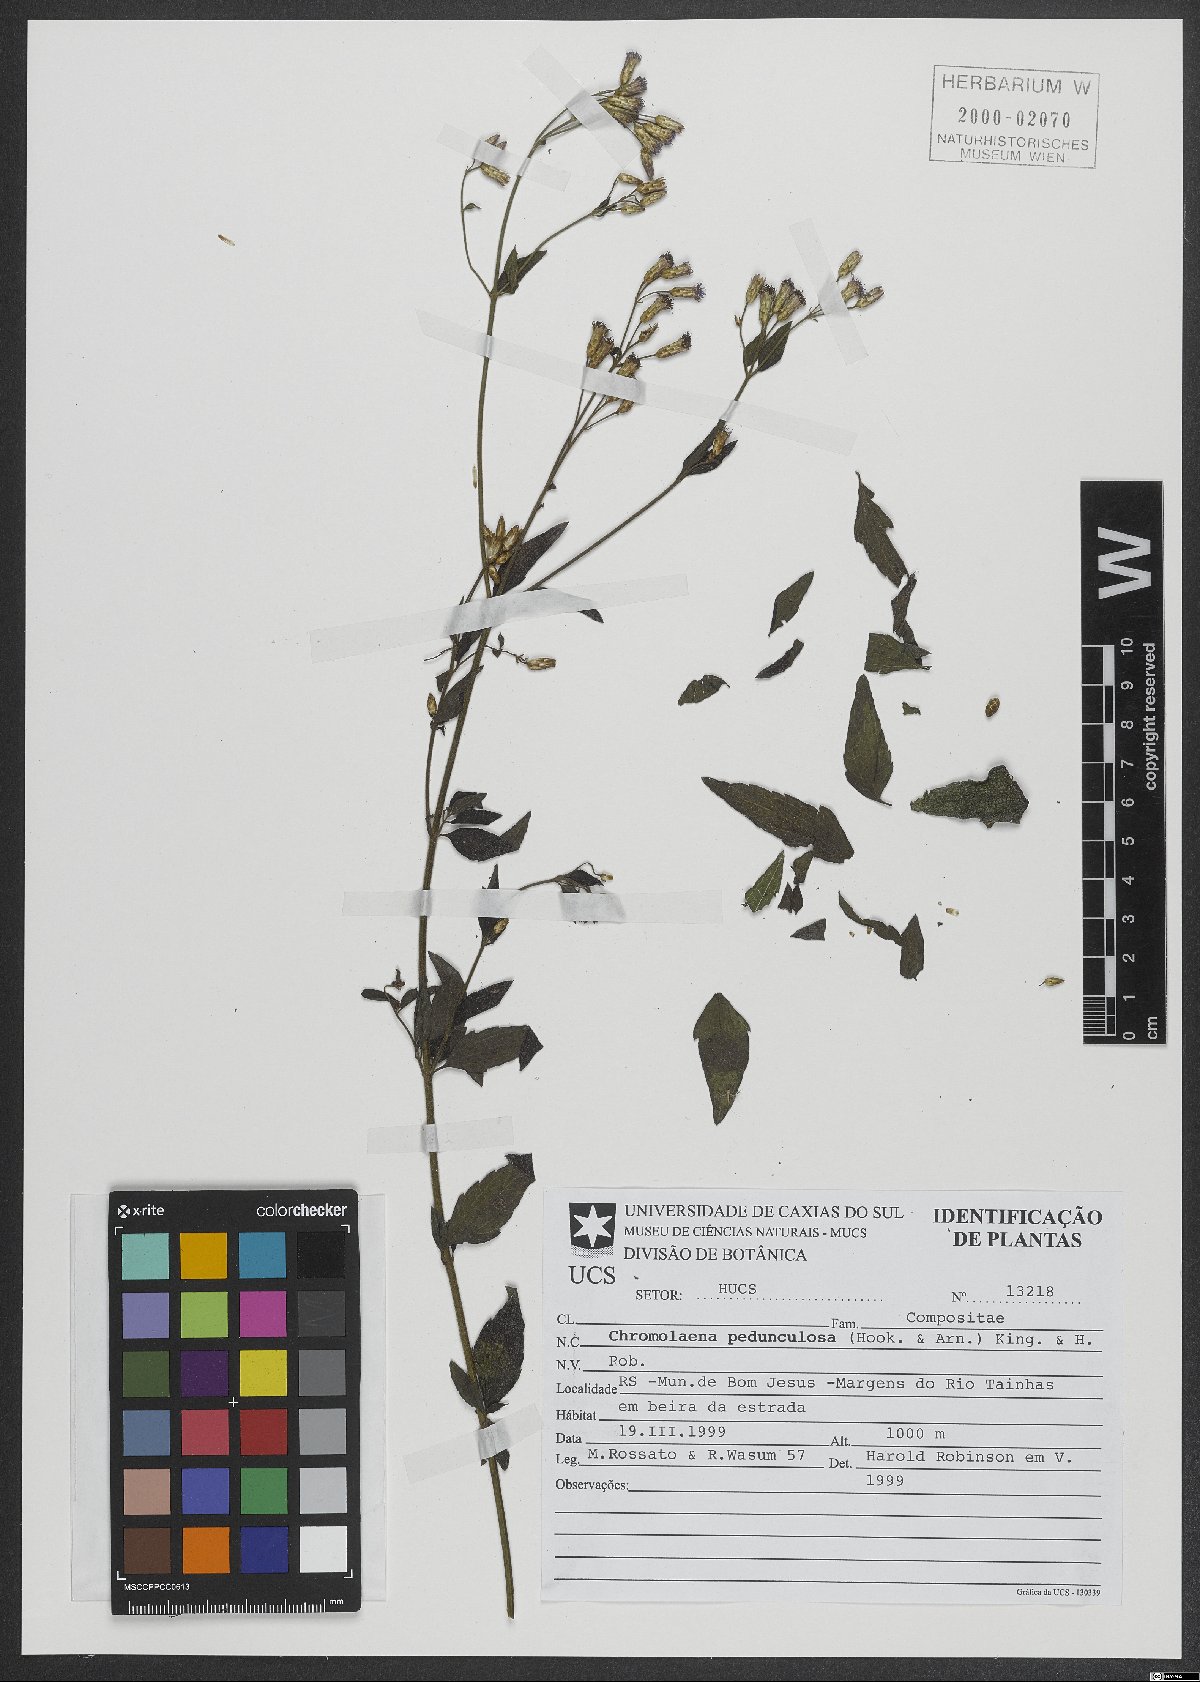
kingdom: Plantae
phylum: Tracheophyta
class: Magnoliopsida
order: Asterales
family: Asteraceae
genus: Chromolaena
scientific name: Chromolaena pedunculosa
